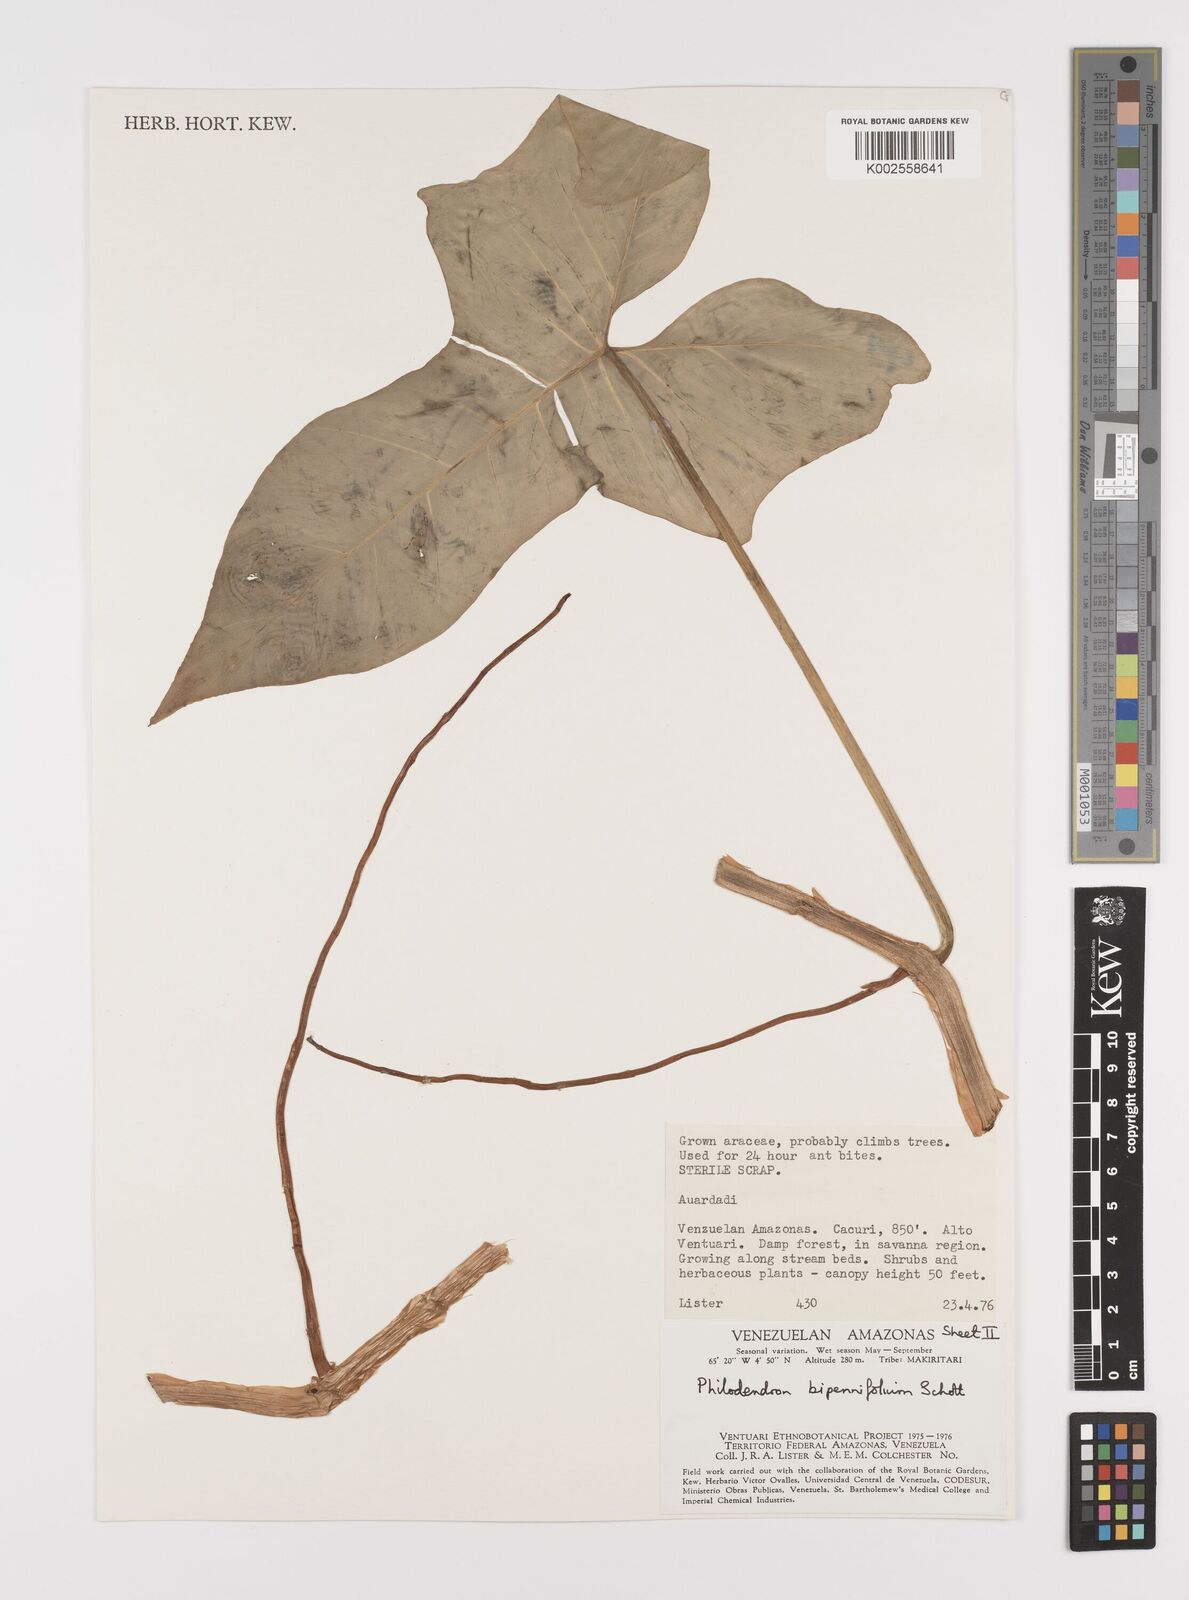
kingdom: Plantae
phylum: Tracheophyta
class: Liliopsida
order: Alismatales
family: Araceae
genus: Philodendron
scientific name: Philodendron bipennifolium
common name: Fiddle-leaf philodendron
